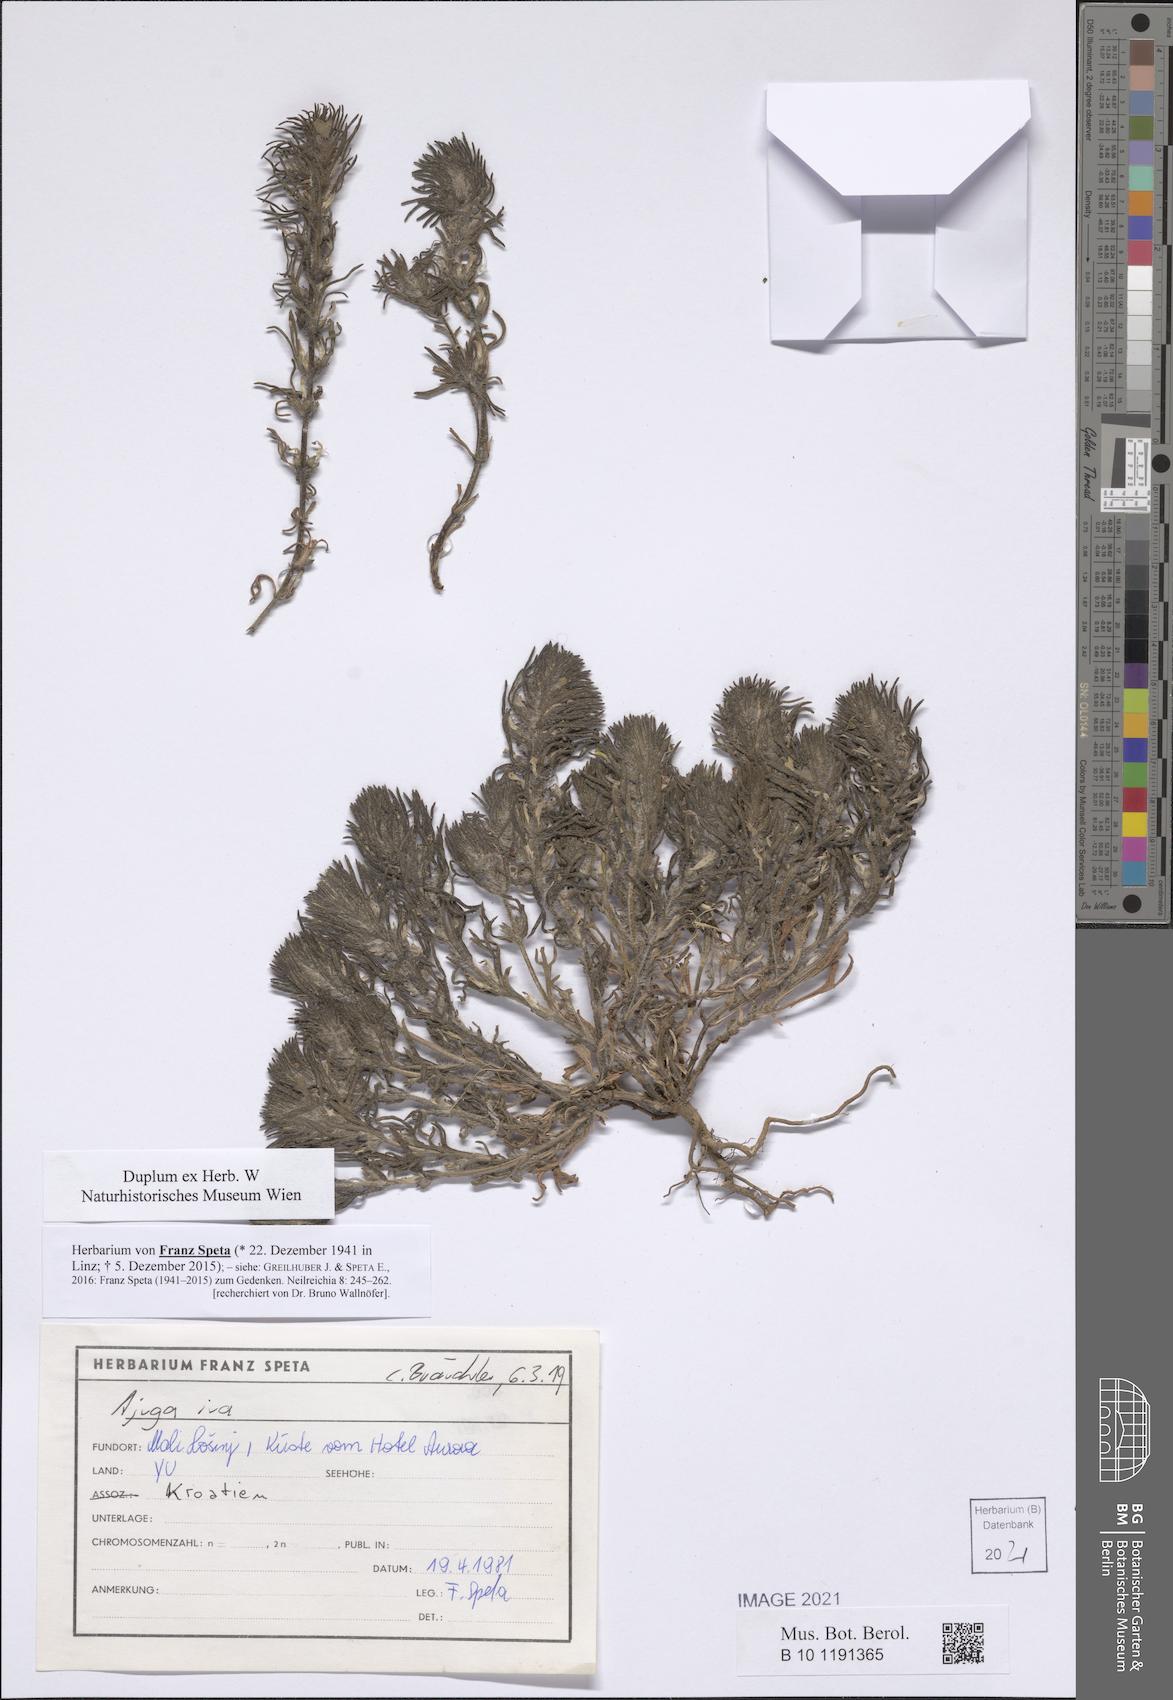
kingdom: Plantae
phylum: Tracheophyta
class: Magnoliopsida
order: Lamiales
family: Lamiaceae
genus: Ajuga
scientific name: Ajuga iva
